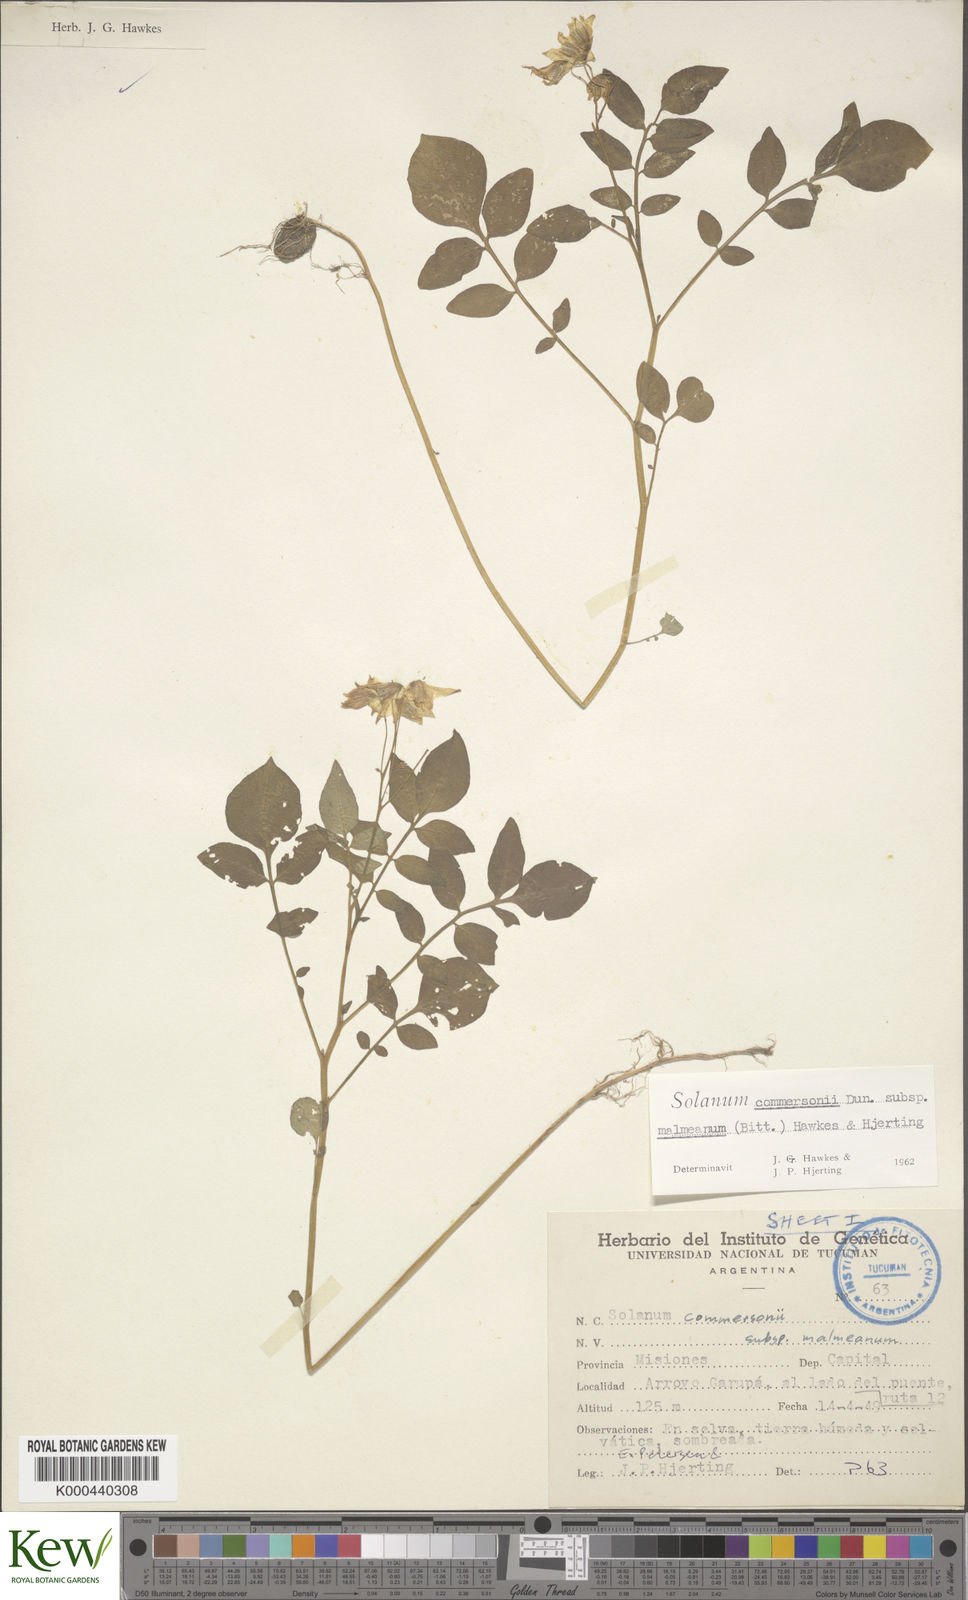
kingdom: Plantae
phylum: Tracheophyta
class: Magnoliopsida
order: Solanales
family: Solanaceae
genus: Solanum
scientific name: Solanum malmeanum
